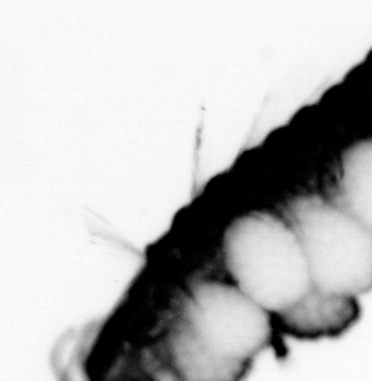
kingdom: Animalia
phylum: Annelida
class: Polychaeta
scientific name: Polychaeta
